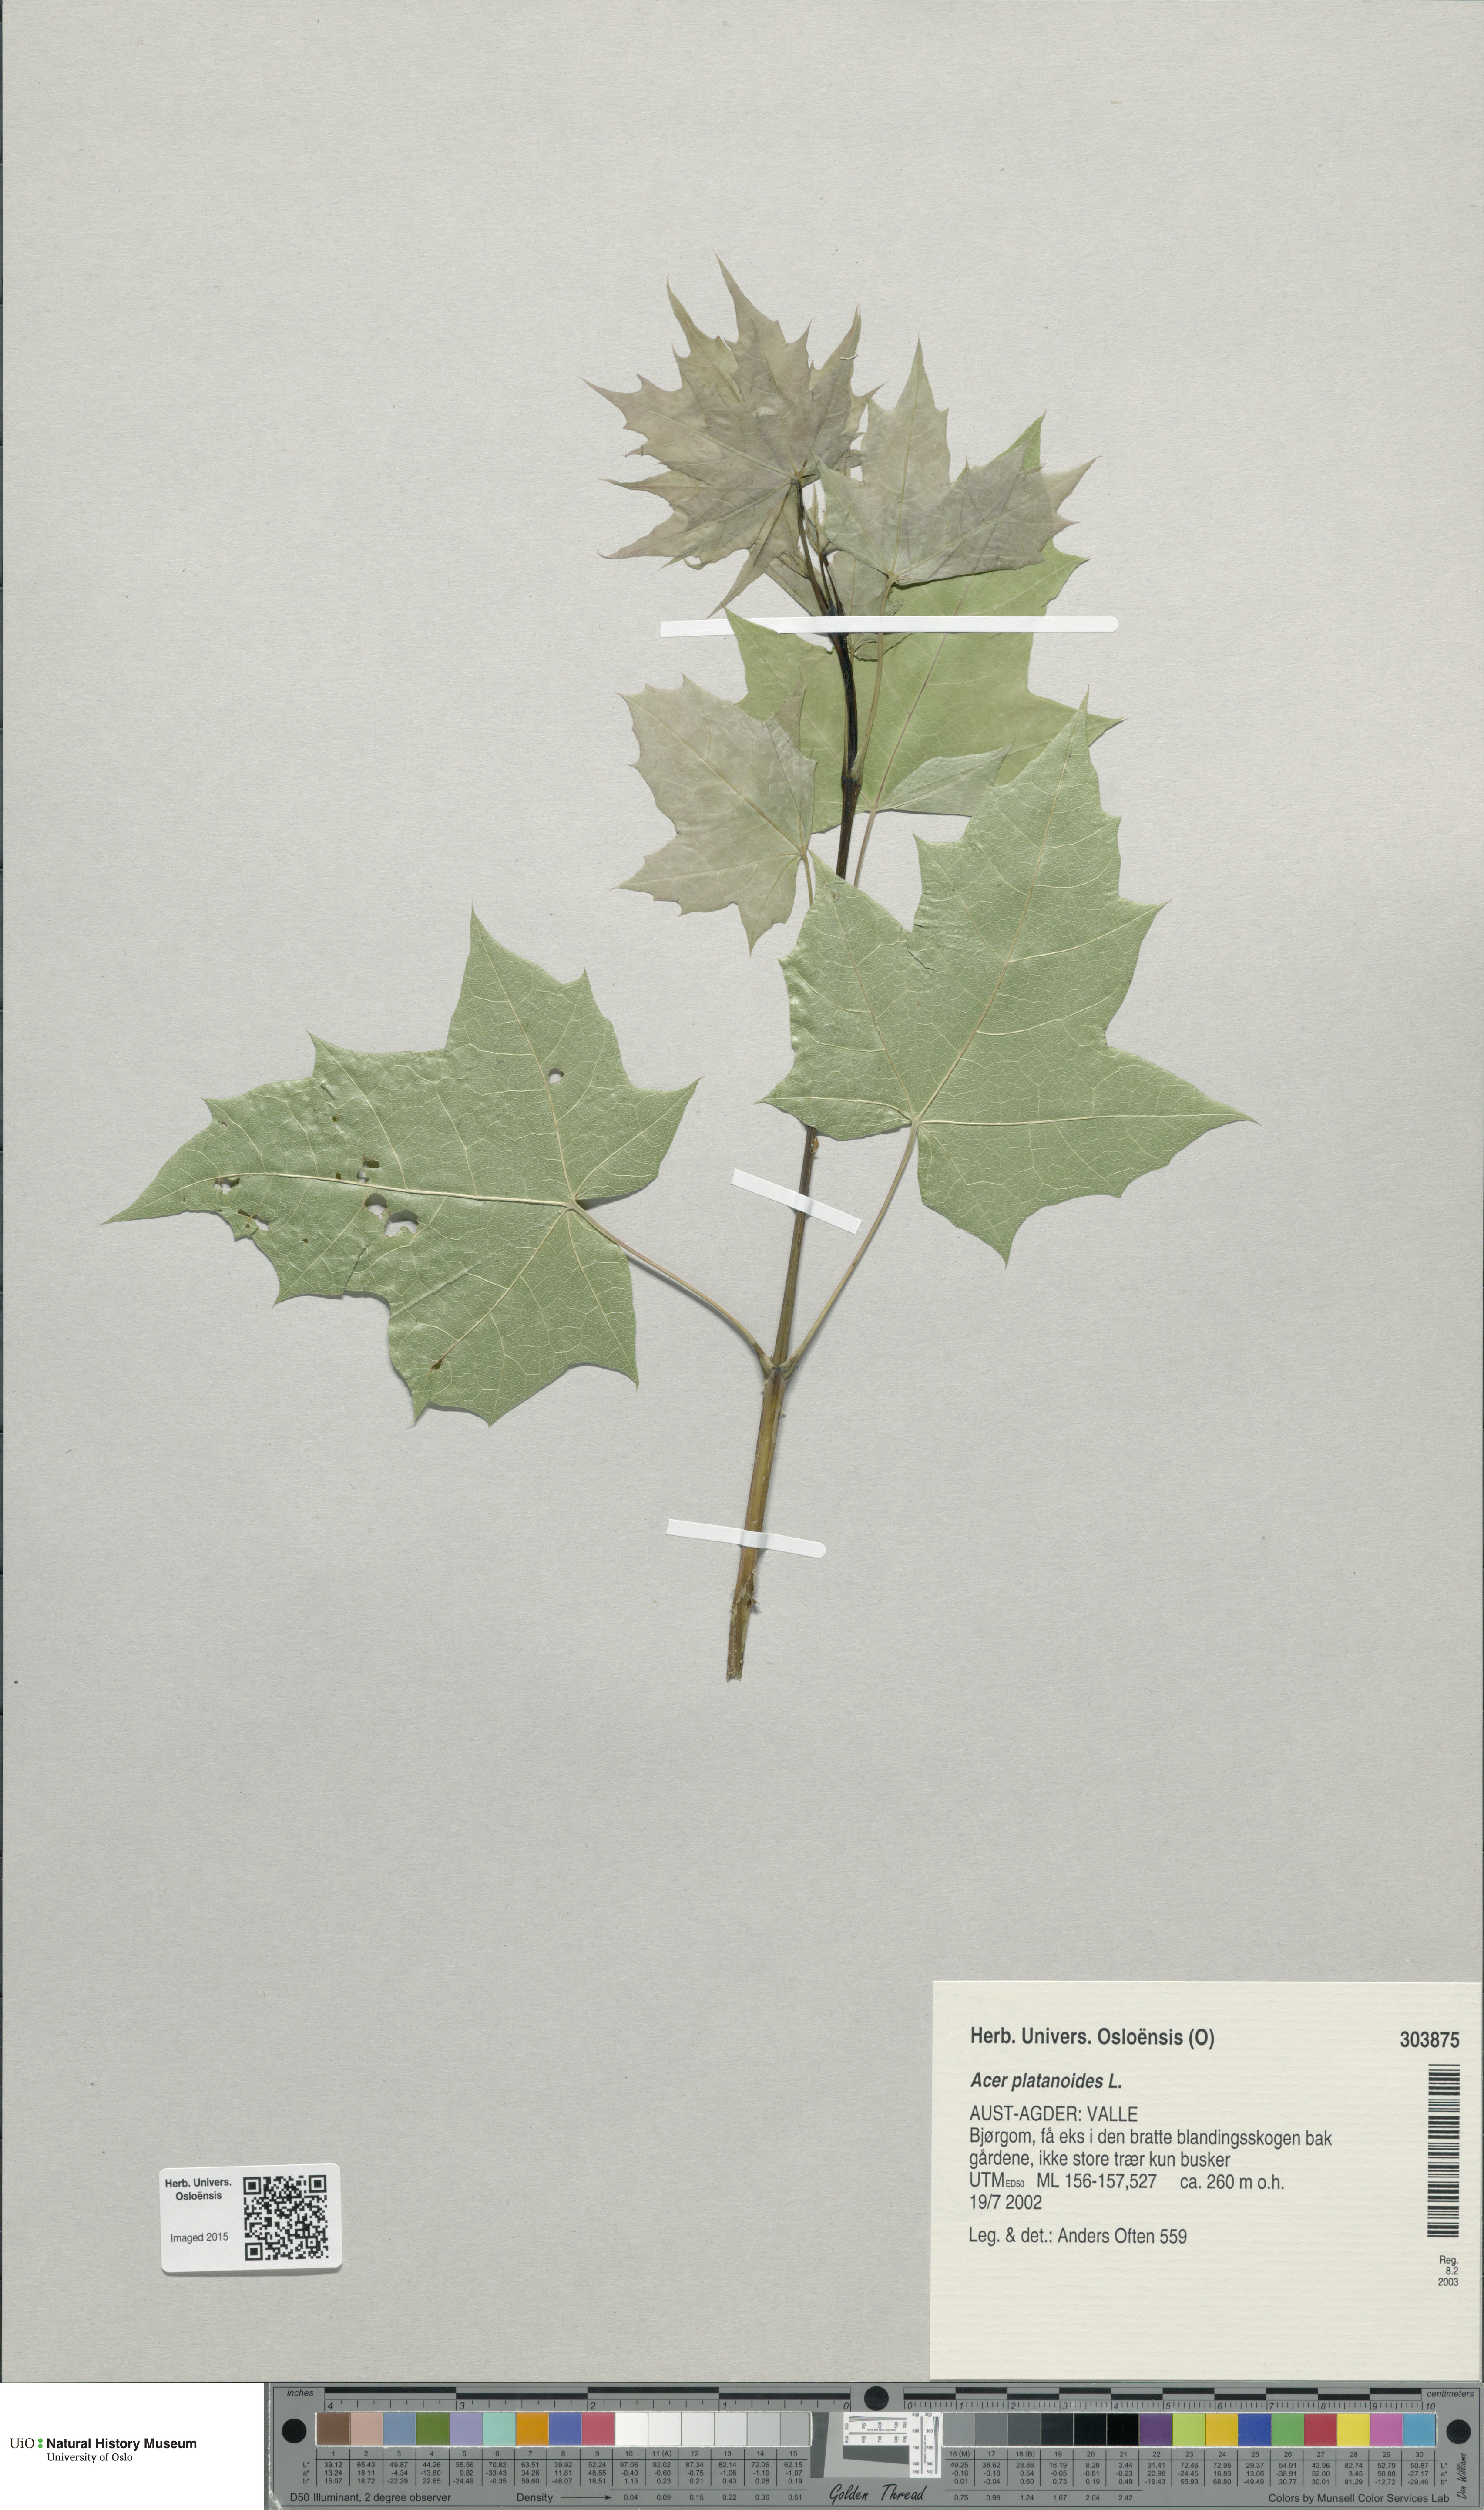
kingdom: Plantae
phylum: Tracheophyta
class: Magnoliopsida
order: Sapindales
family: Sapindaceae
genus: Acer
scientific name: Acer platanoides
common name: Norway maple
